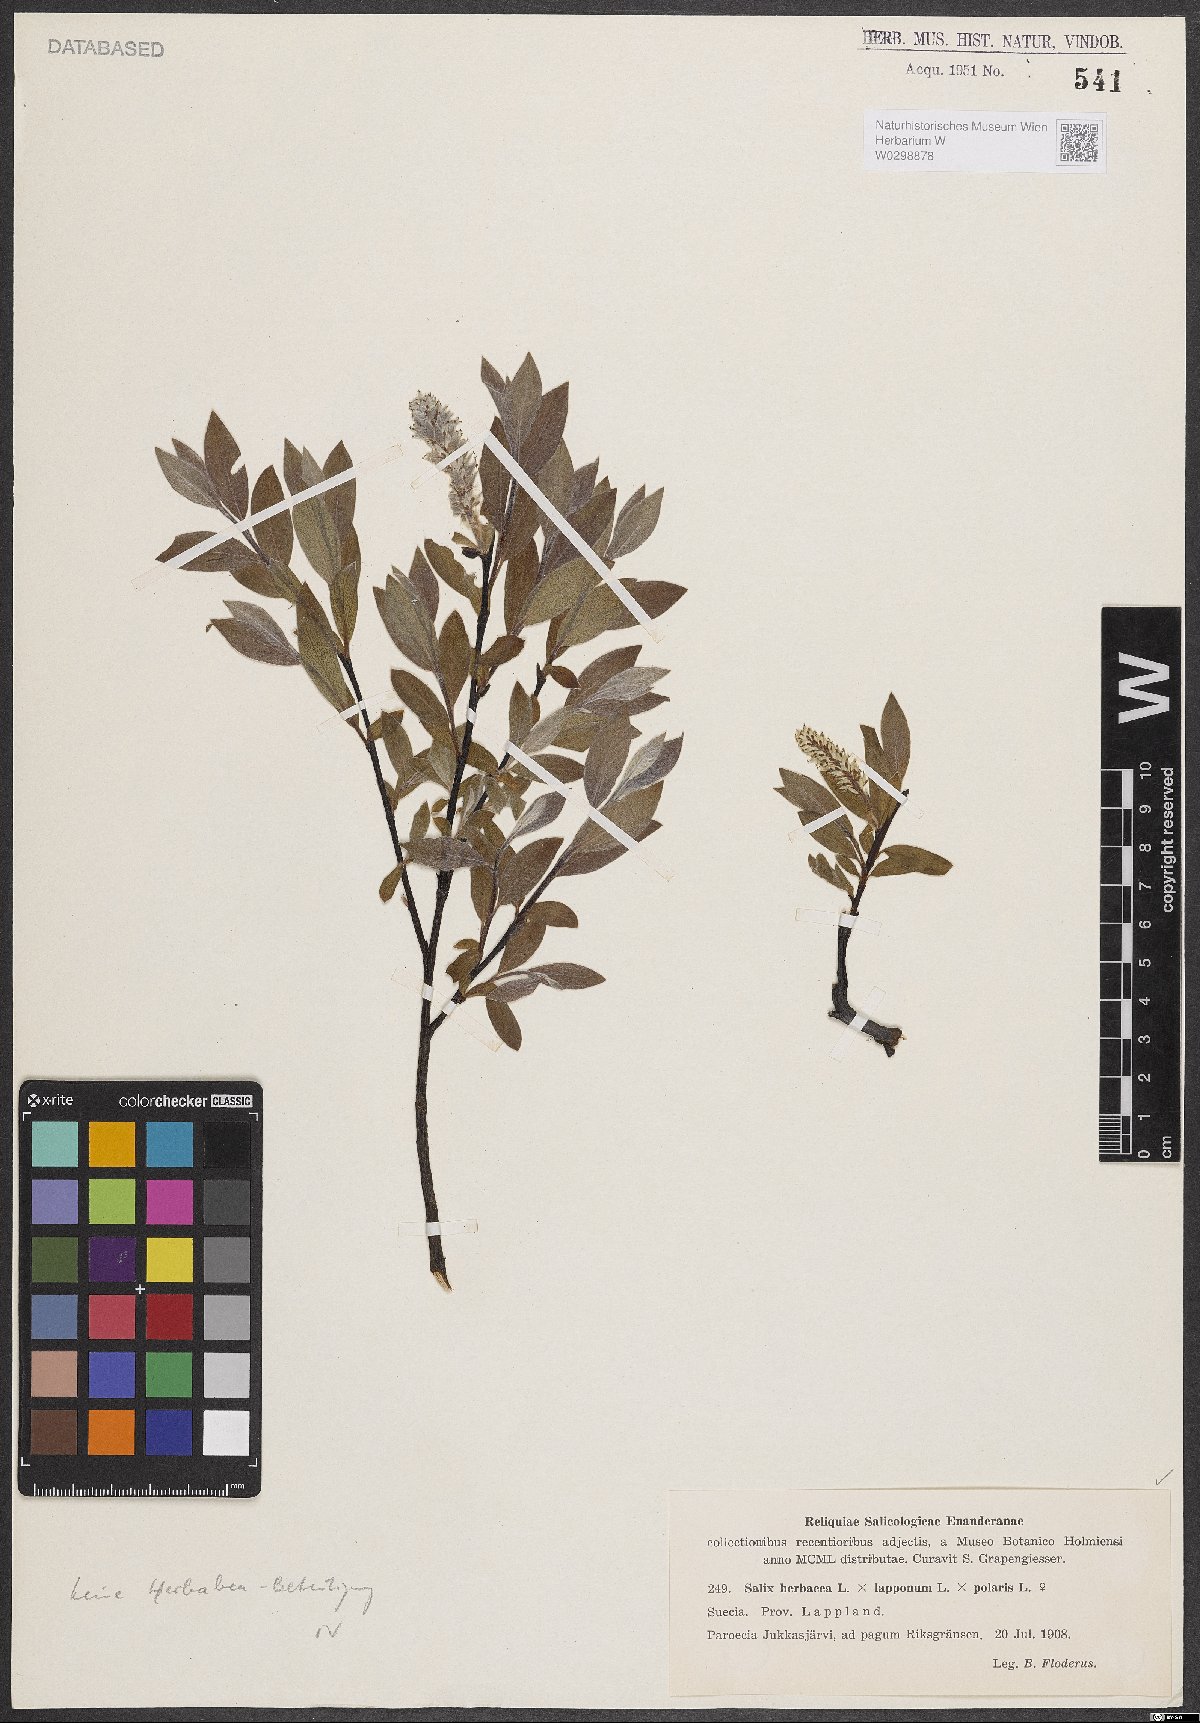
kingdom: Plantae
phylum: Tracheophyta
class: Magnoliopsida
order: Malpighiales
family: Salicaceae
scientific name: Salicaceae
